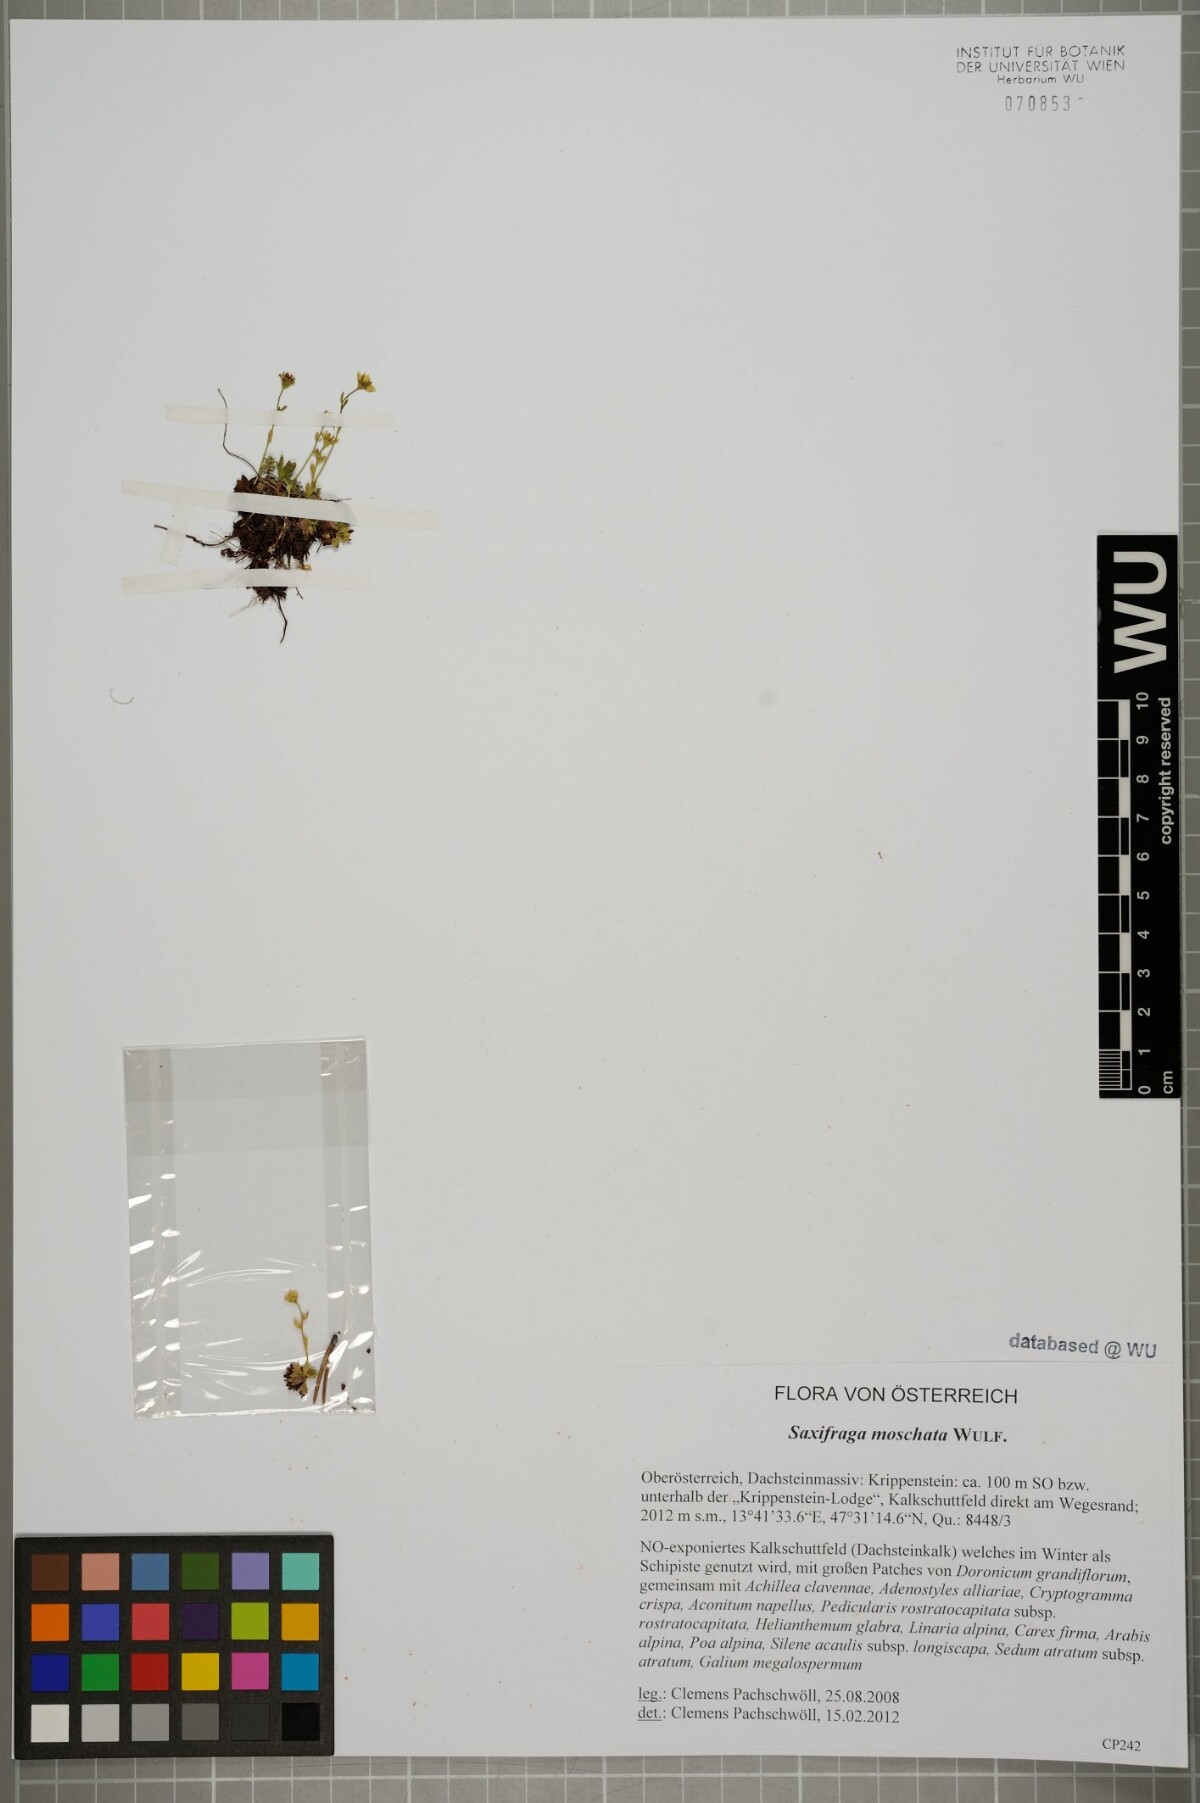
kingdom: Plantae
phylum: Tracheophyta
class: Magnoliopsida
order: Saxifragales
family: Saxifragaceae
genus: Saxifraga
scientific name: Saxifraga moschata
